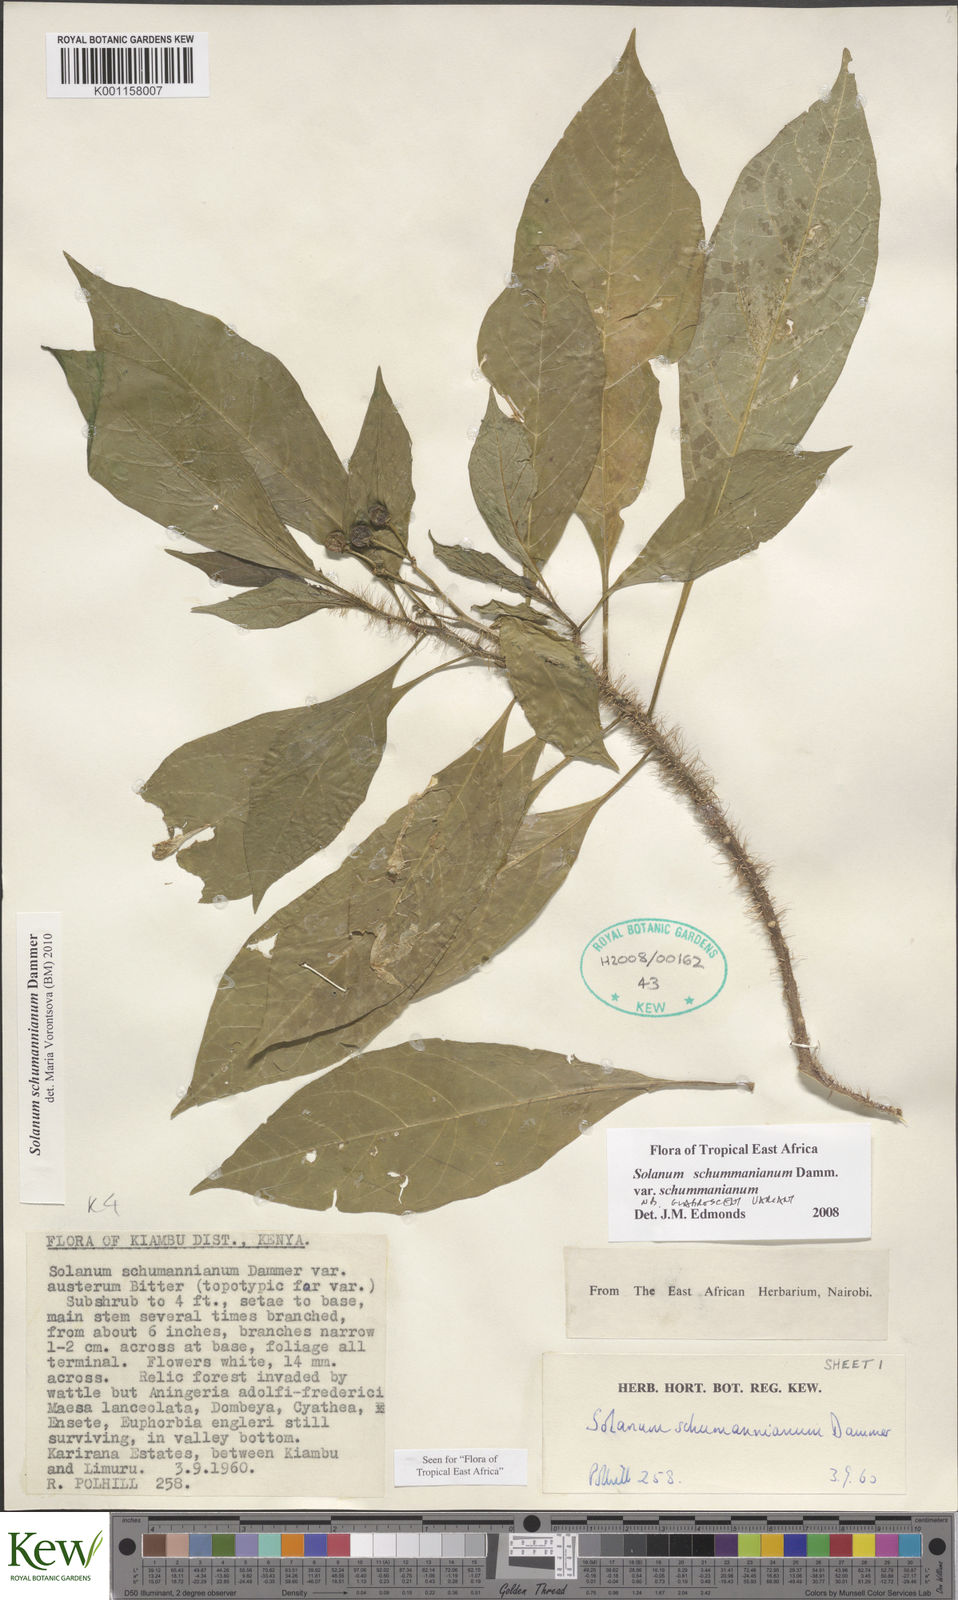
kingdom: Plantae
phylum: Tracheophyta
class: Magnoliopsida
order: Solanales
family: Solanaceae
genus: Solanum
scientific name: Solanum schumannianum
